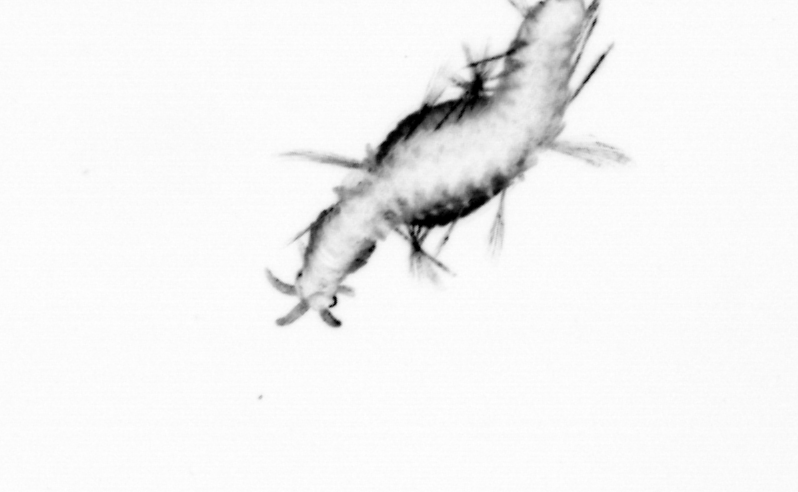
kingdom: Animalia
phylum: Annelida
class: Polychaeta
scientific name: Polychaeta
